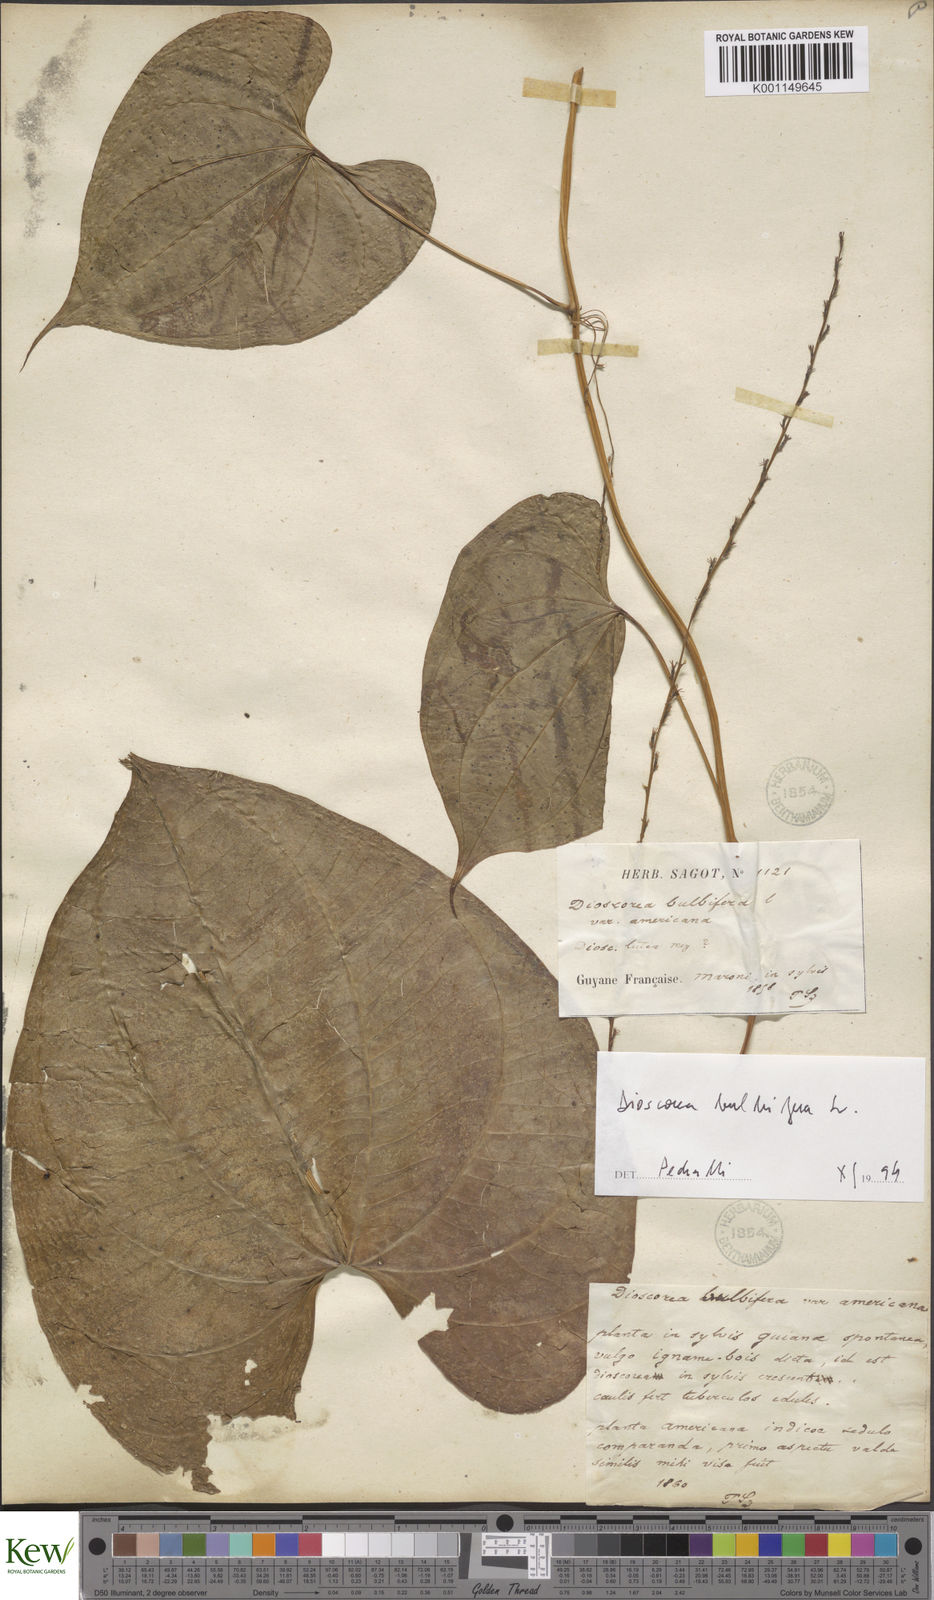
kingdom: Plantae
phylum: Tracheophyta
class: Liliopsida
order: Dioscoreales
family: Dioscoreaceae
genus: Dioscorea
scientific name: Dioscorea bulbifera
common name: Air yam
